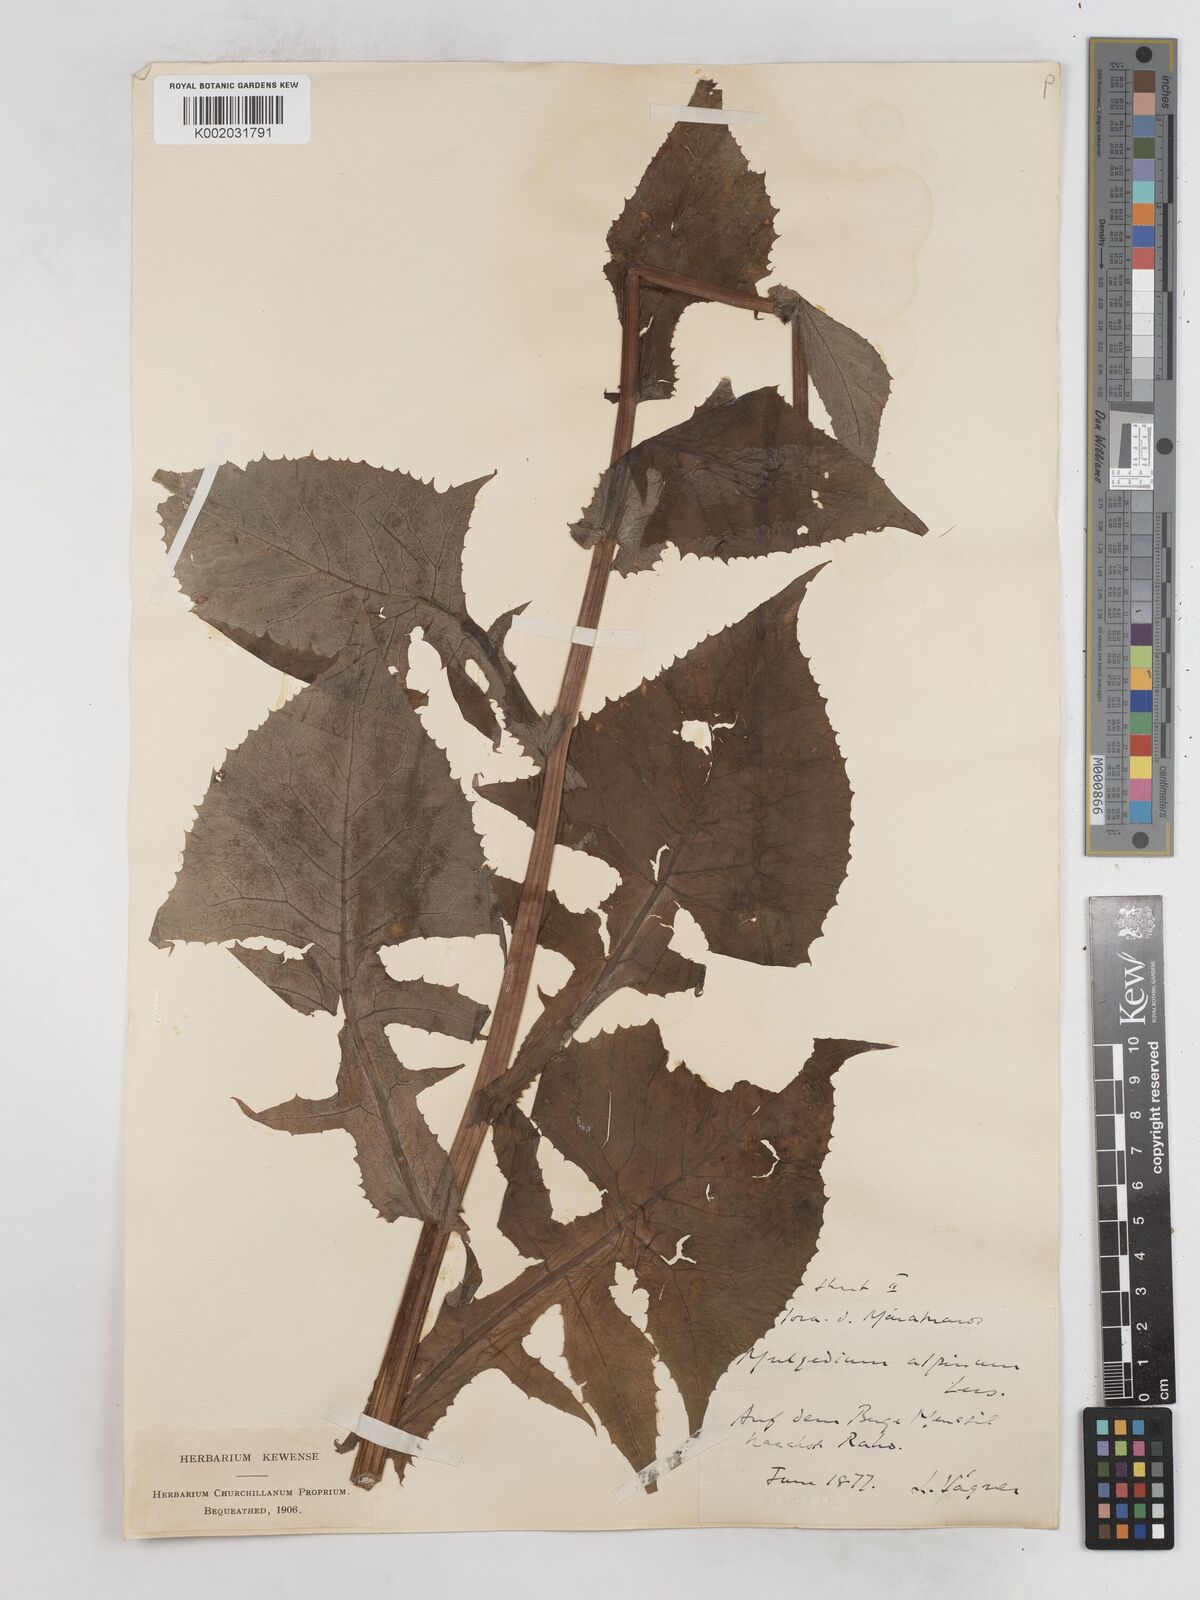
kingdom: Plantae
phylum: Tracheophyta
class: Magnoliopsida
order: Asterales
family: Asteraceae
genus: Cicerbita
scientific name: Cicerbita alpina
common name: Alpine blue-sow-thistle
